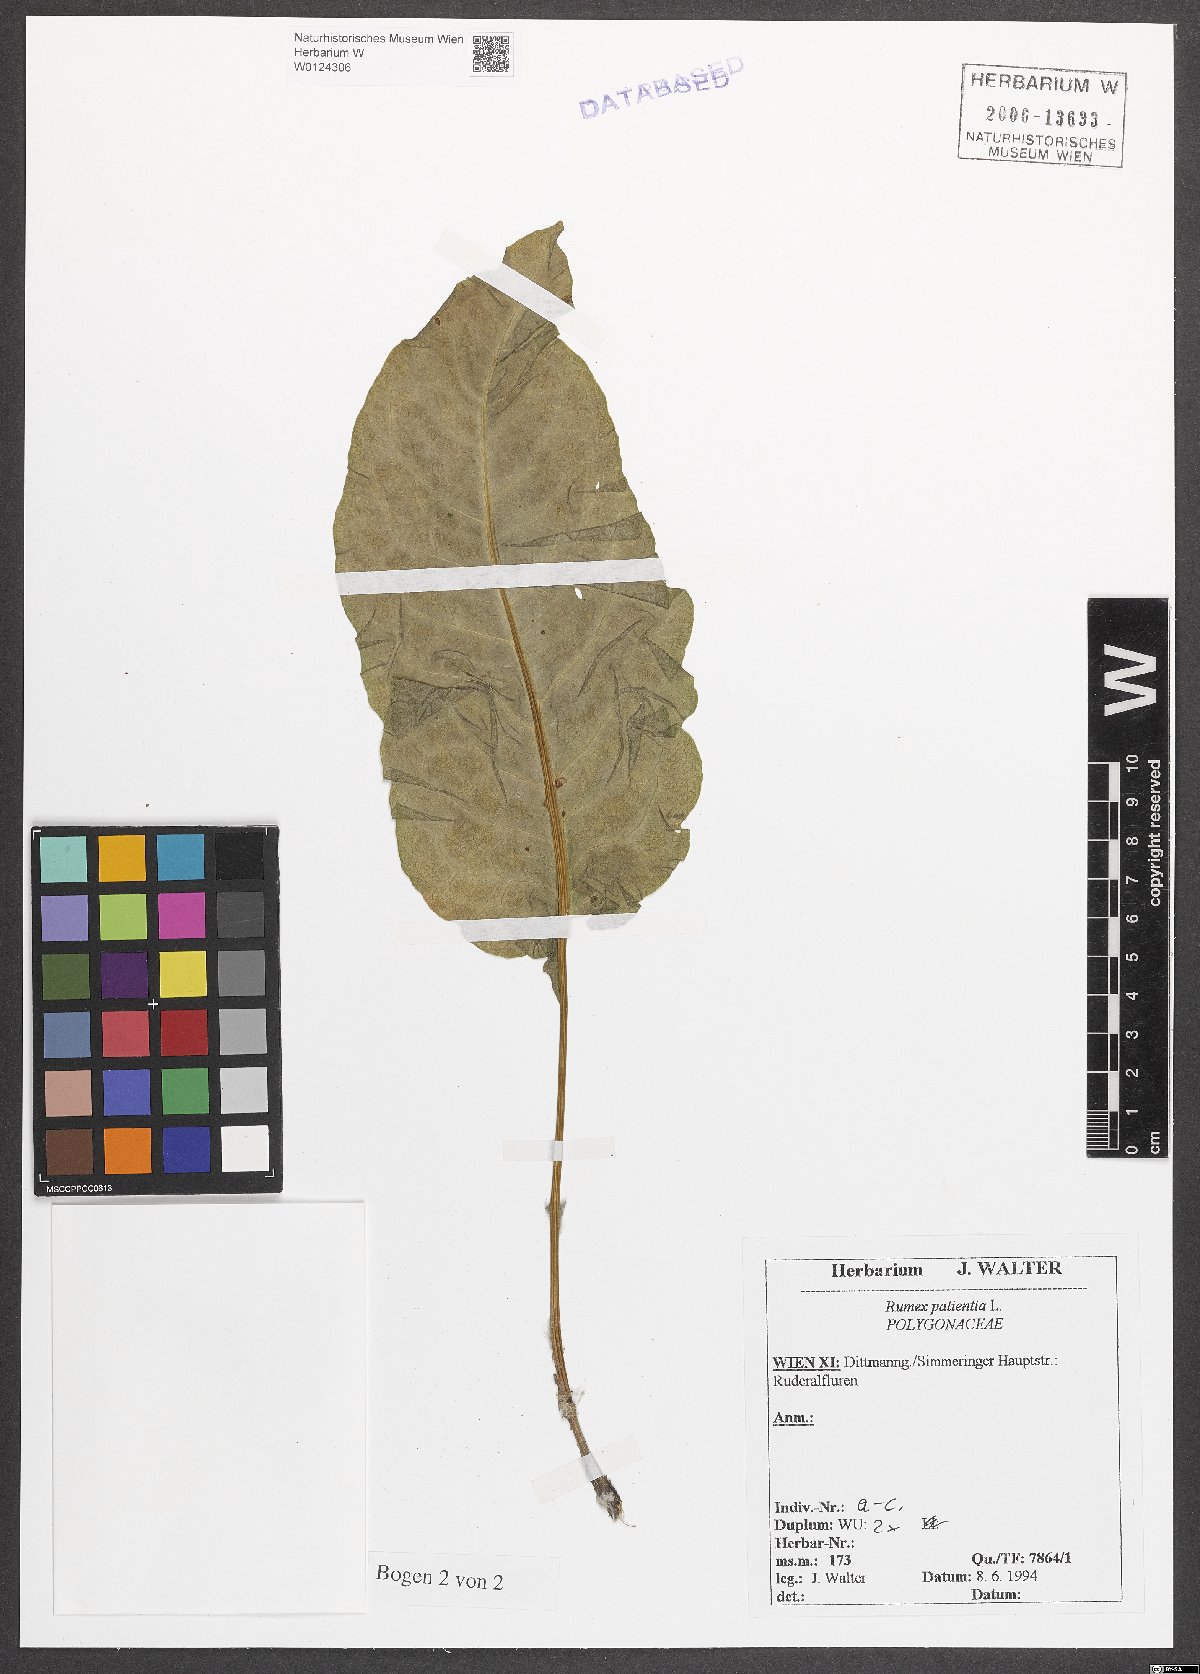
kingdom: Plantae
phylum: Tracheophyta
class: Magnoliopsida
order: Caryophyllales
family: Polygonaceae
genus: Rumex
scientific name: Rumex patientia
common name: Patience dock
